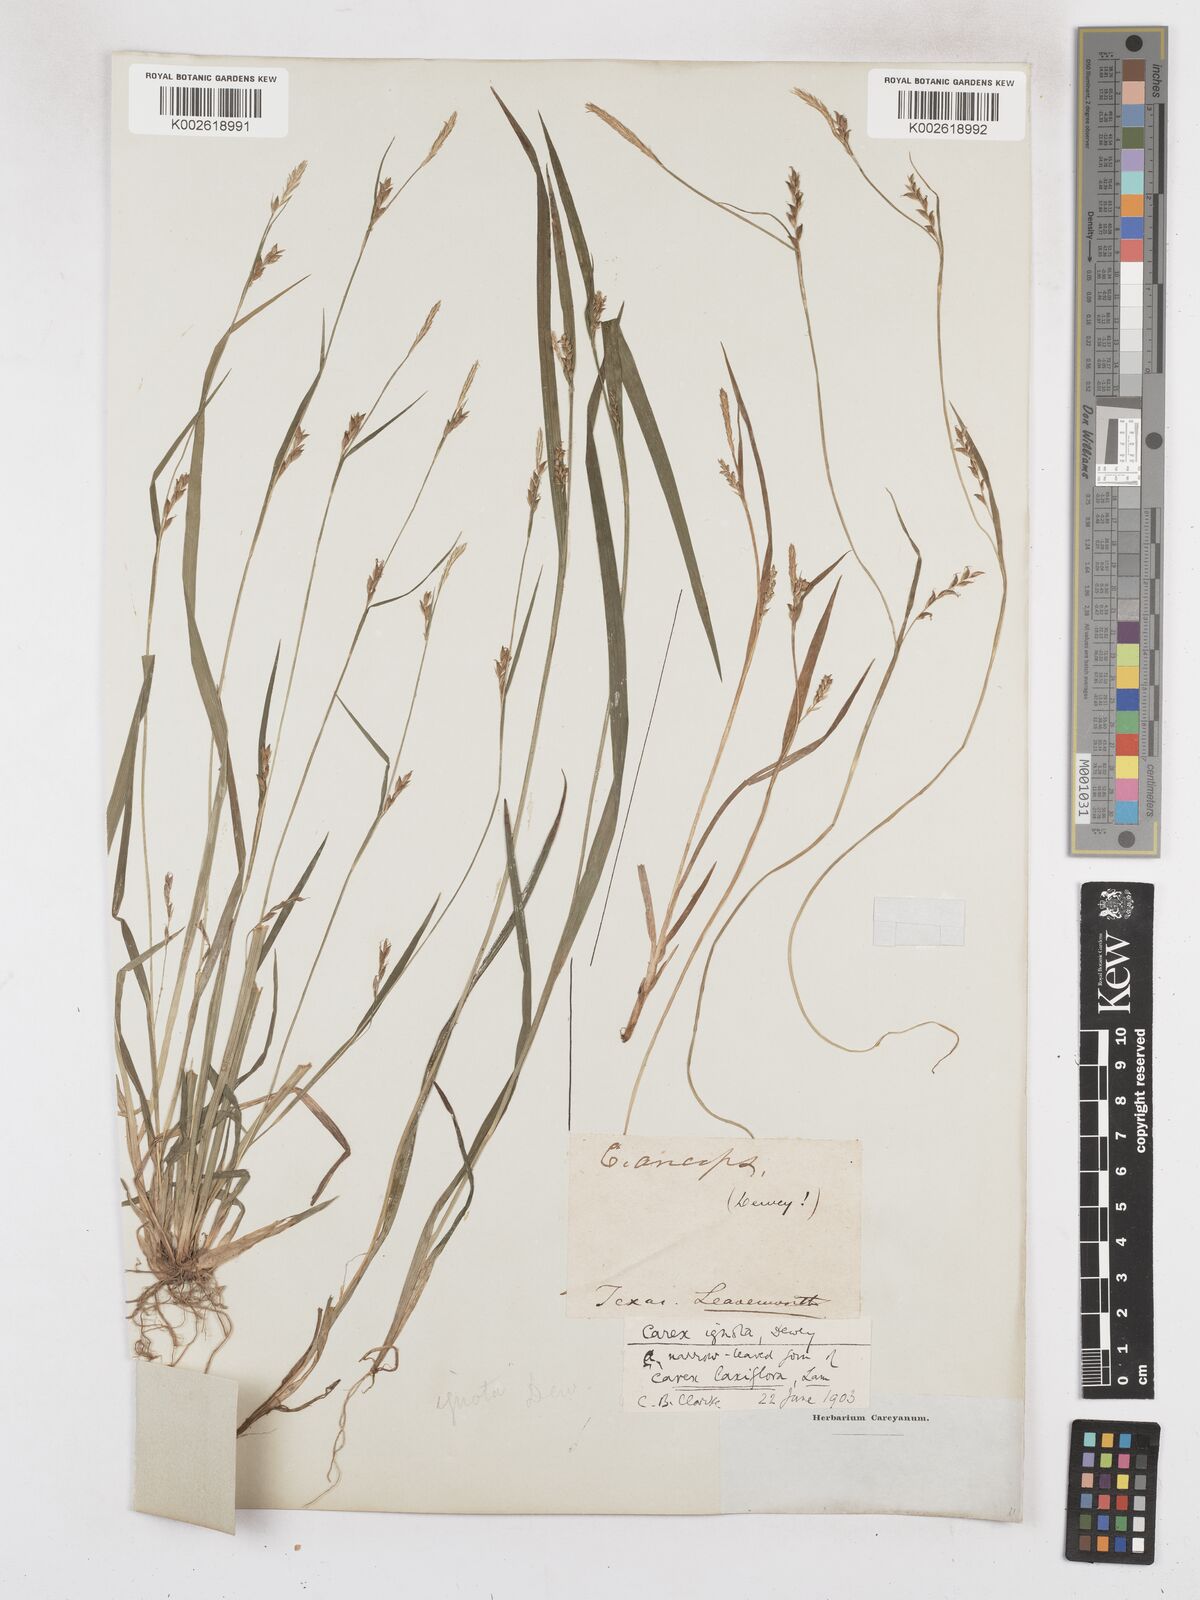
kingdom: Plantae
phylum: Tracheophyta
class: Liliopsida
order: Poales
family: Cyperaceae
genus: Carex
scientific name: Carex striatula
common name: Lined sedge
